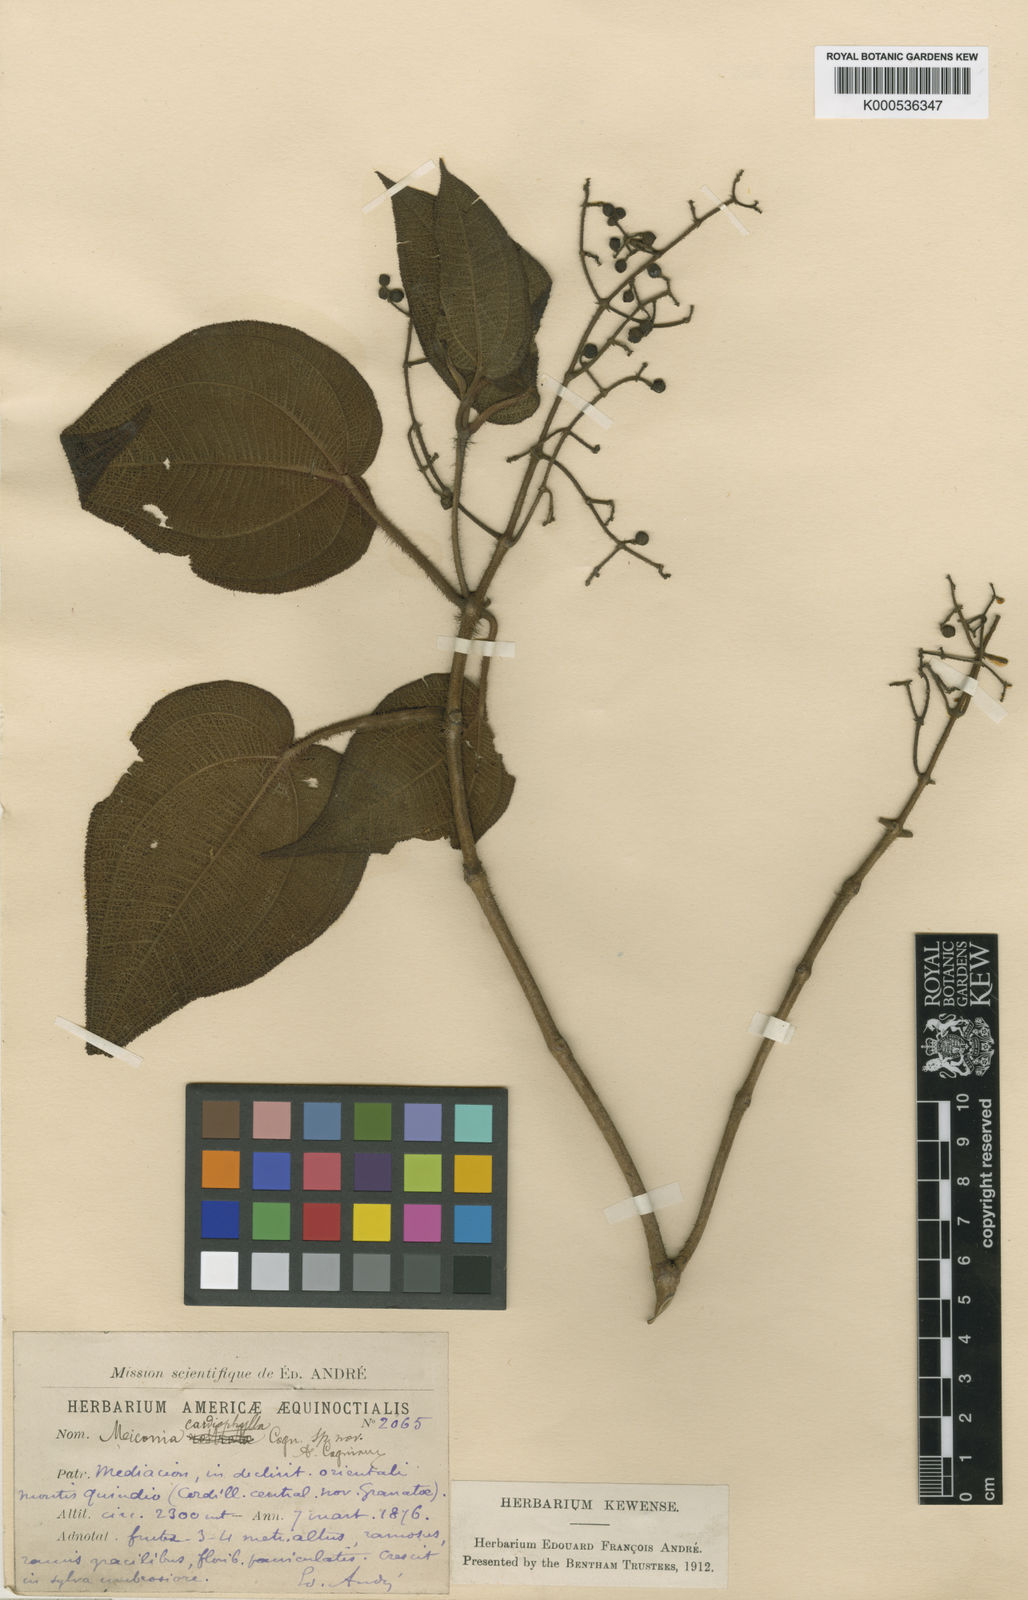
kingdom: Plantae
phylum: Tracheophyta
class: Magnoliopsida
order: Myrtales
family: Melastomataceae
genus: Miconia
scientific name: Miconia crinita
